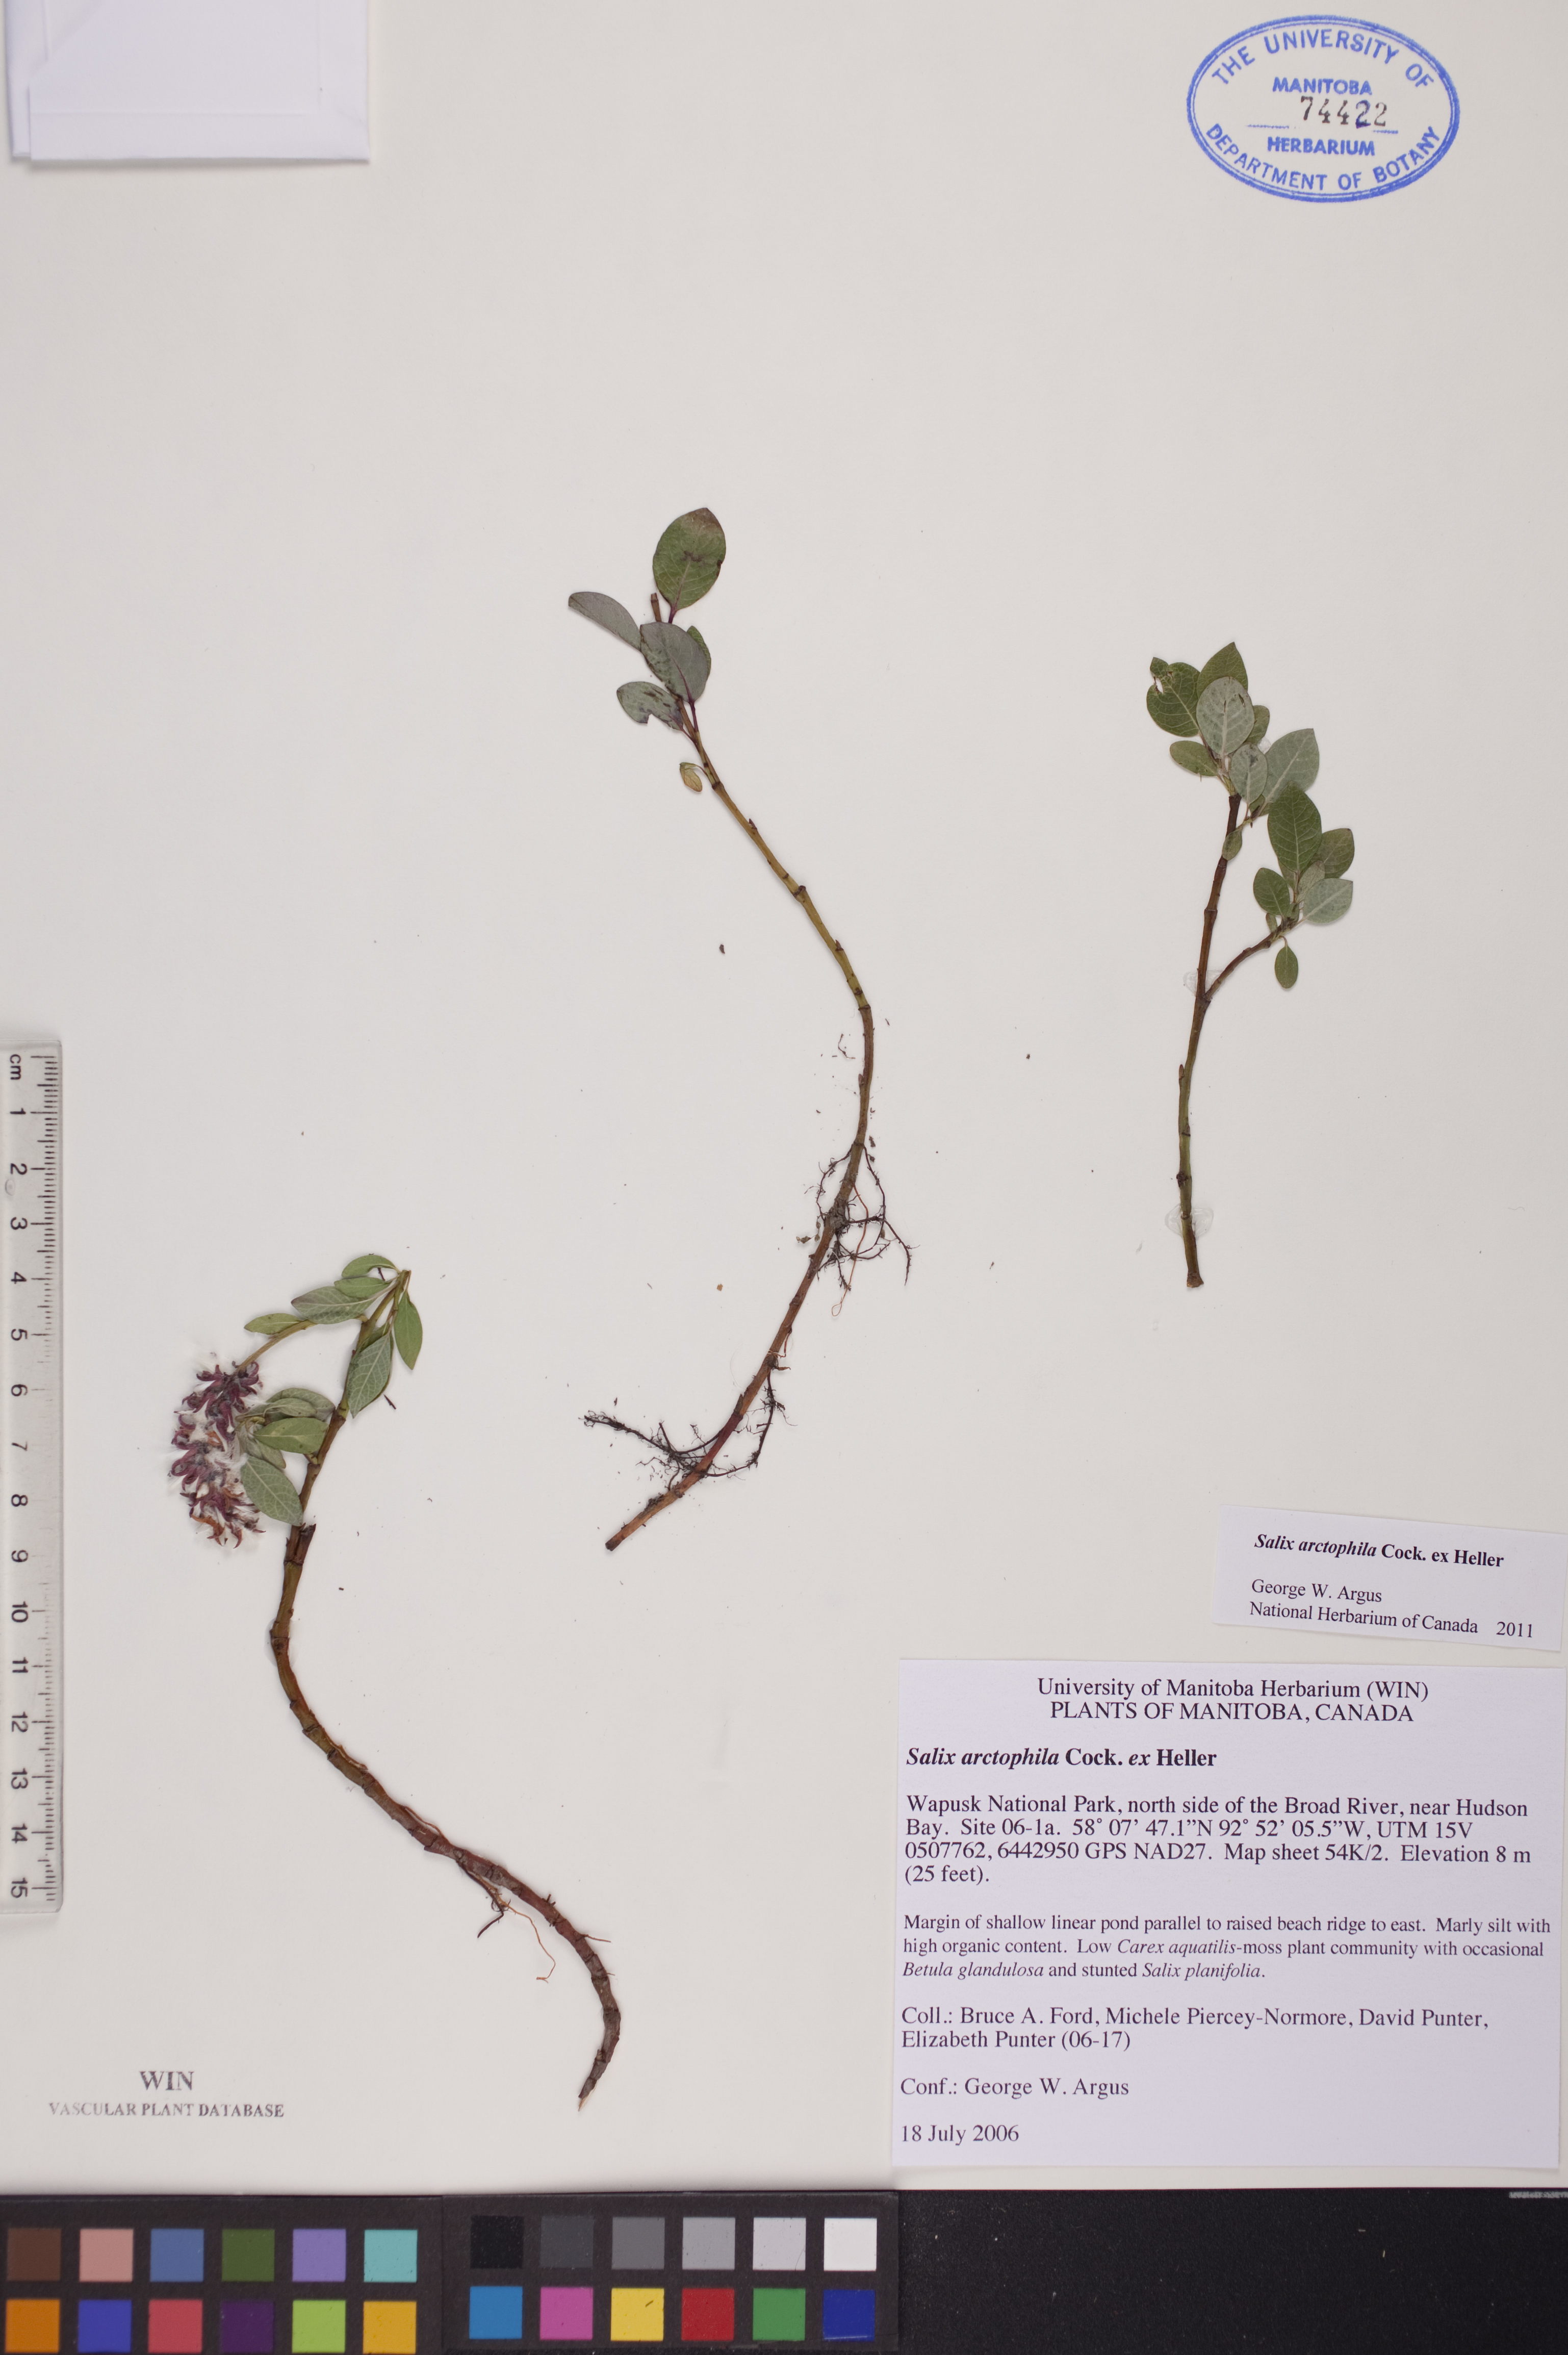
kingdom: Plantae
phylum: Tracheophyta
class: Magnoliopsida
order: Malpighiales
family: Salicaceae
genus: Salix
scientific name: Salix arctophila
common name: Greenland willow
